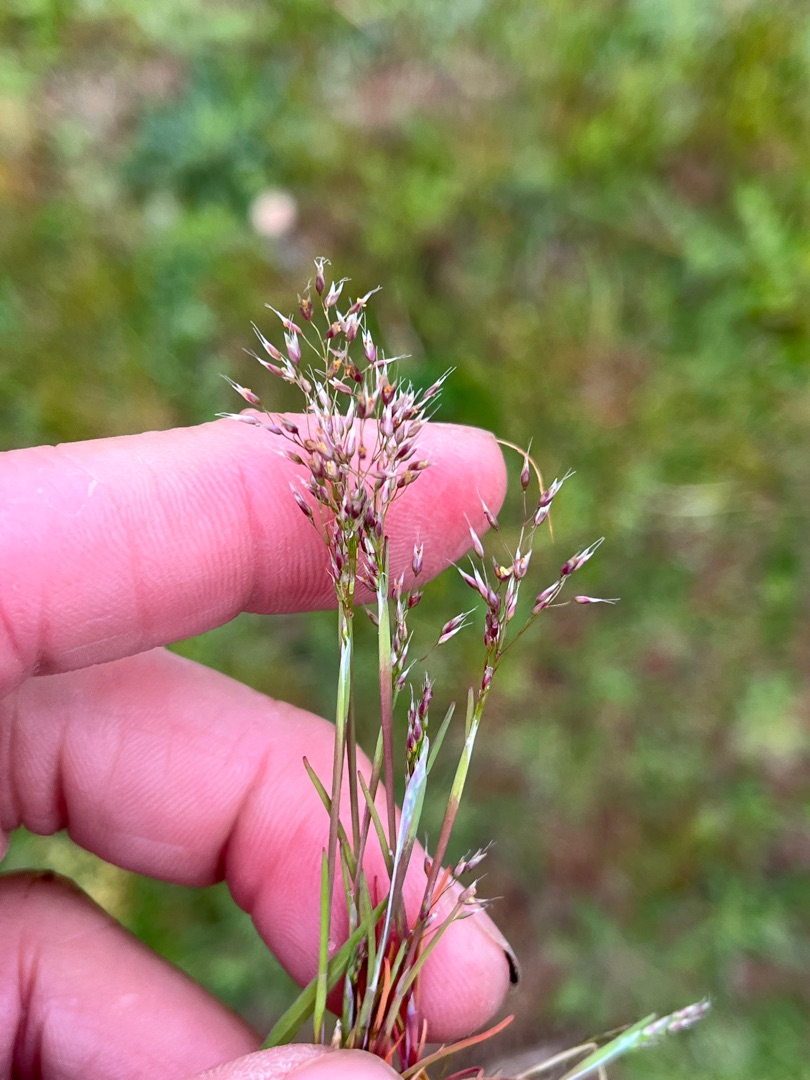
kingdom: Plantae
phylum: Tracheophyta
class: Liliopsida
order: Poales
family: Poaceae
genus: Aira
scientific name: Aira caryophyllea
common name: Udspærret dværgbunke
